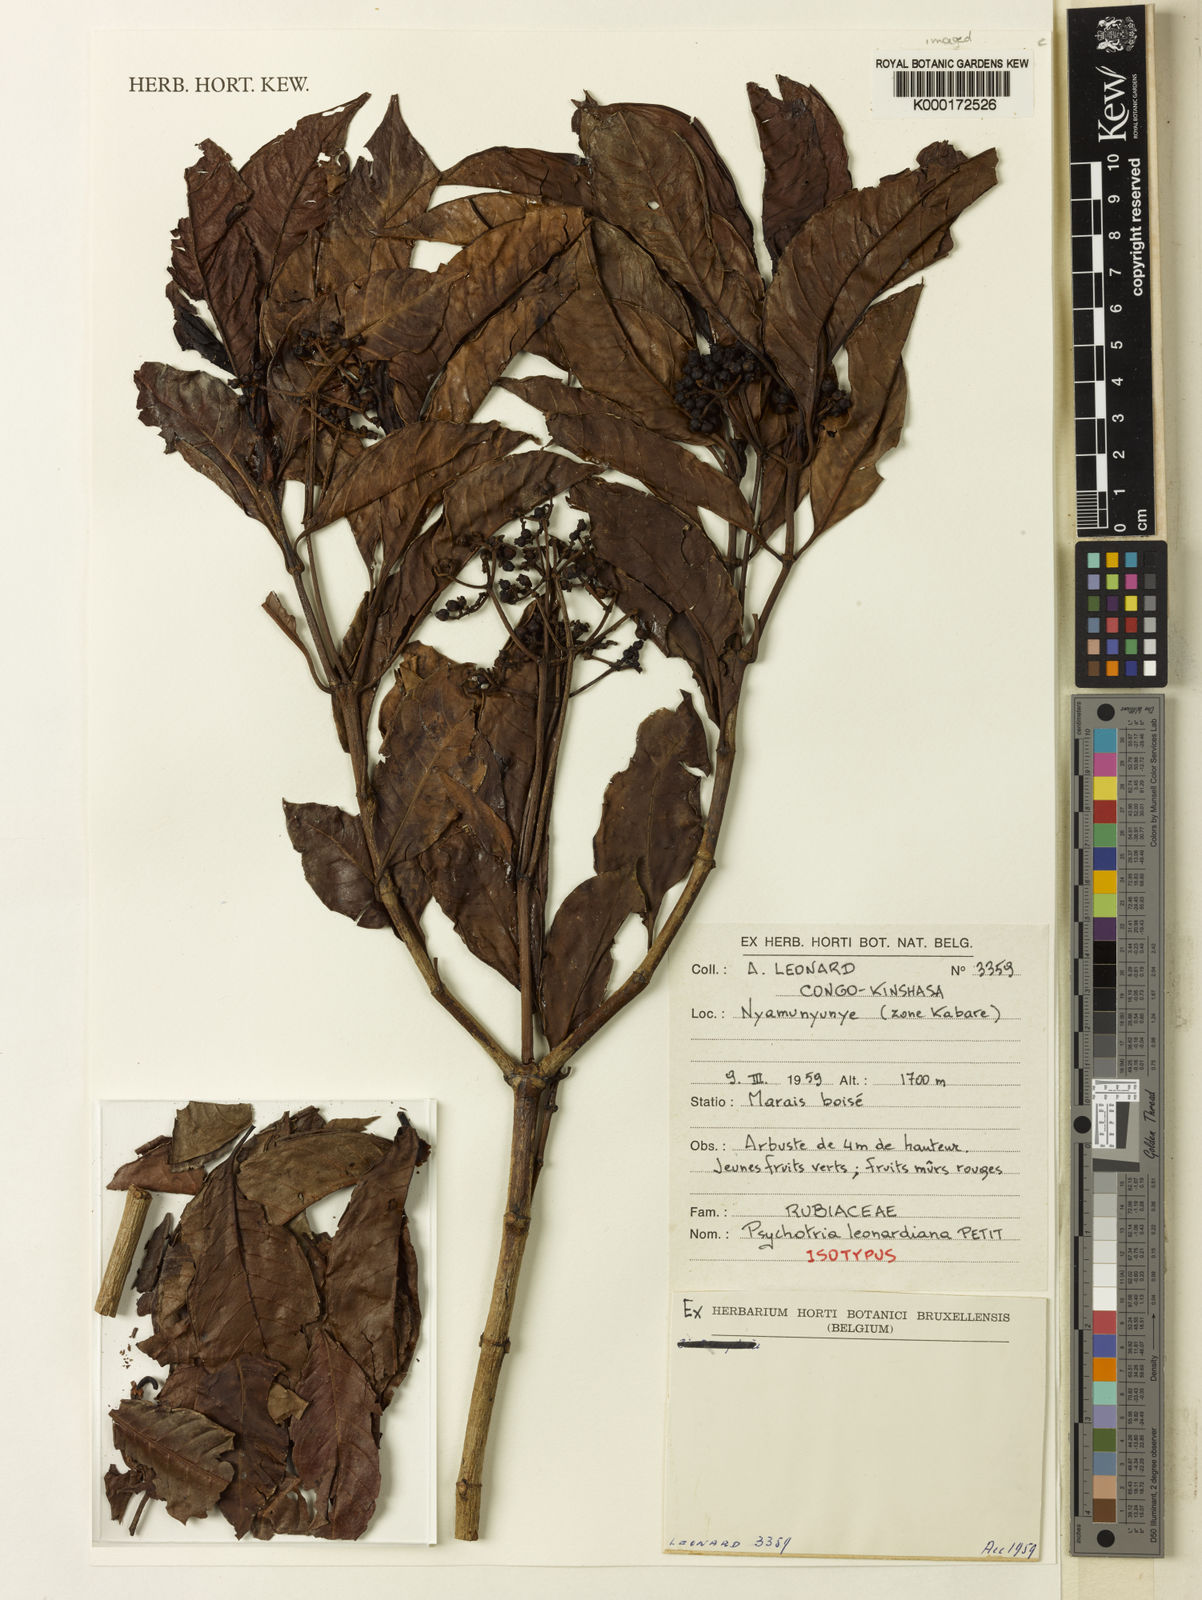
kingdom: Plantae
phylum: Tracheophyta
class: Magnoliopsida
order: Gentianales
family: Rubiaceae
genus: Psychotria
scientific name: Psychotria leonardiana
